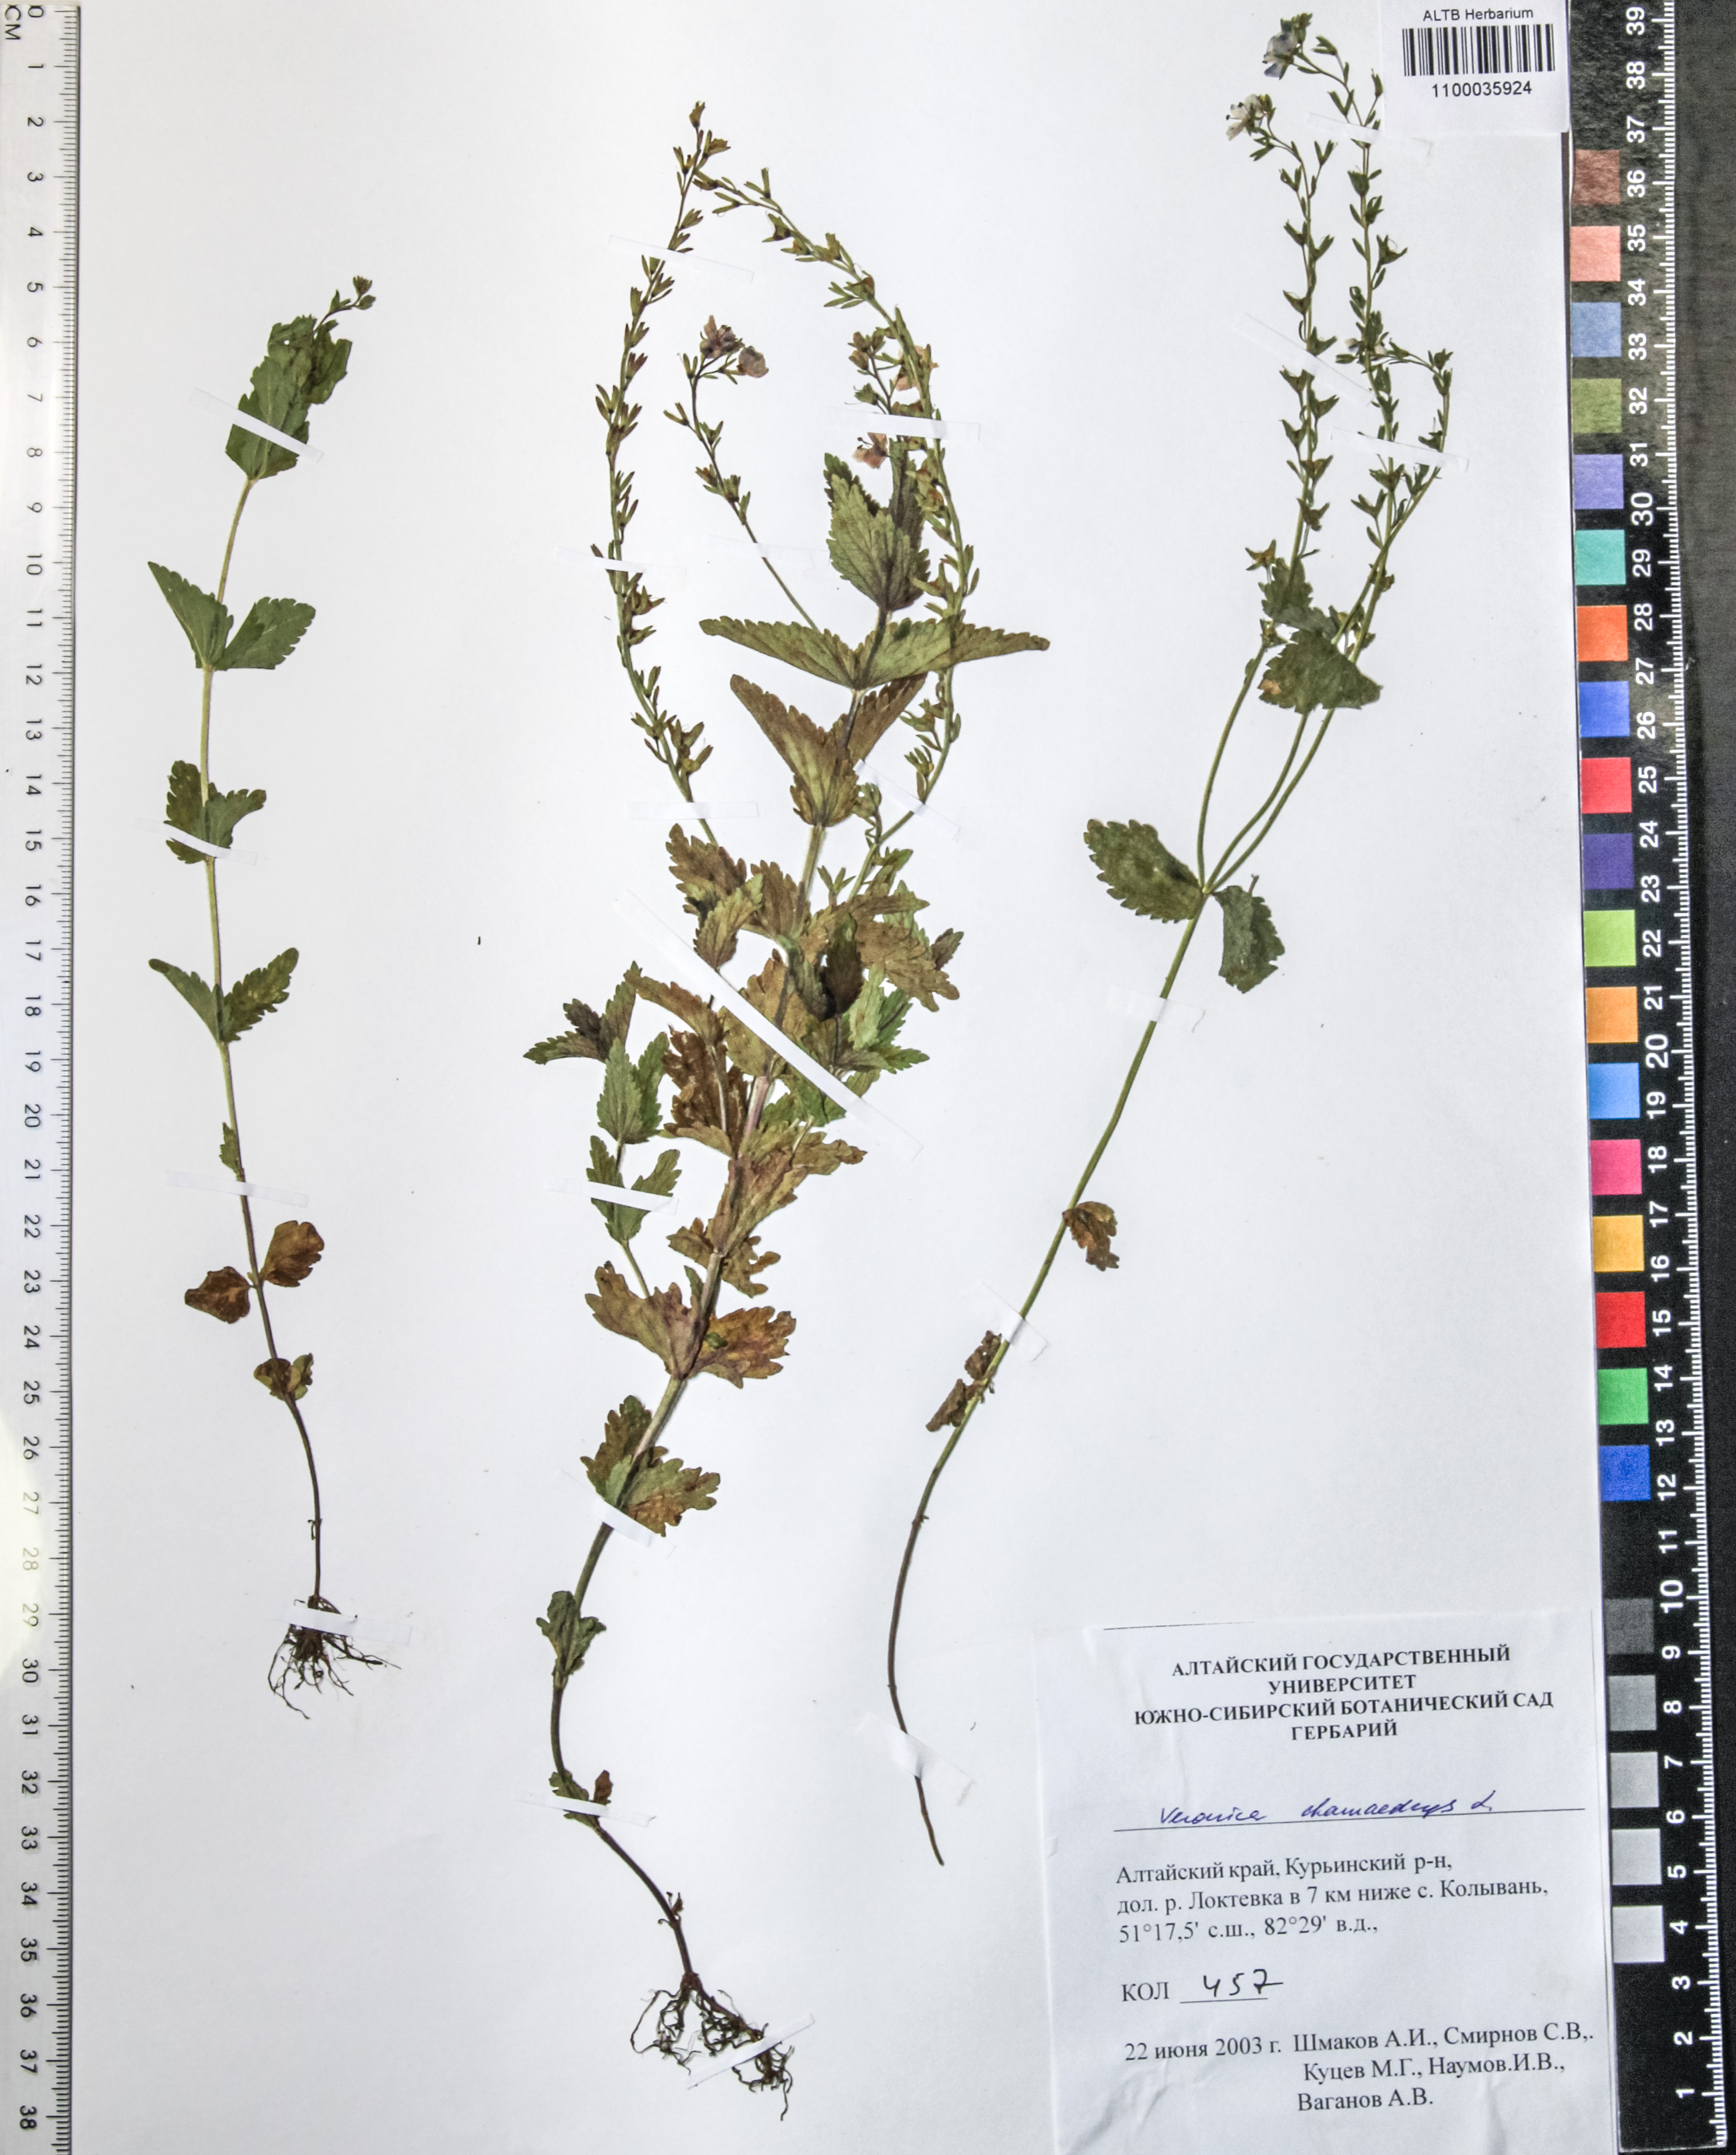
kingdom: Plantae
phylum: Tracheophyta
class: Magnoliopsida
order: Lamiales
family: Plantaginaceae
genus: Veronica
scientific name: Veronica chamaedrys
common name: Germander speedwell
